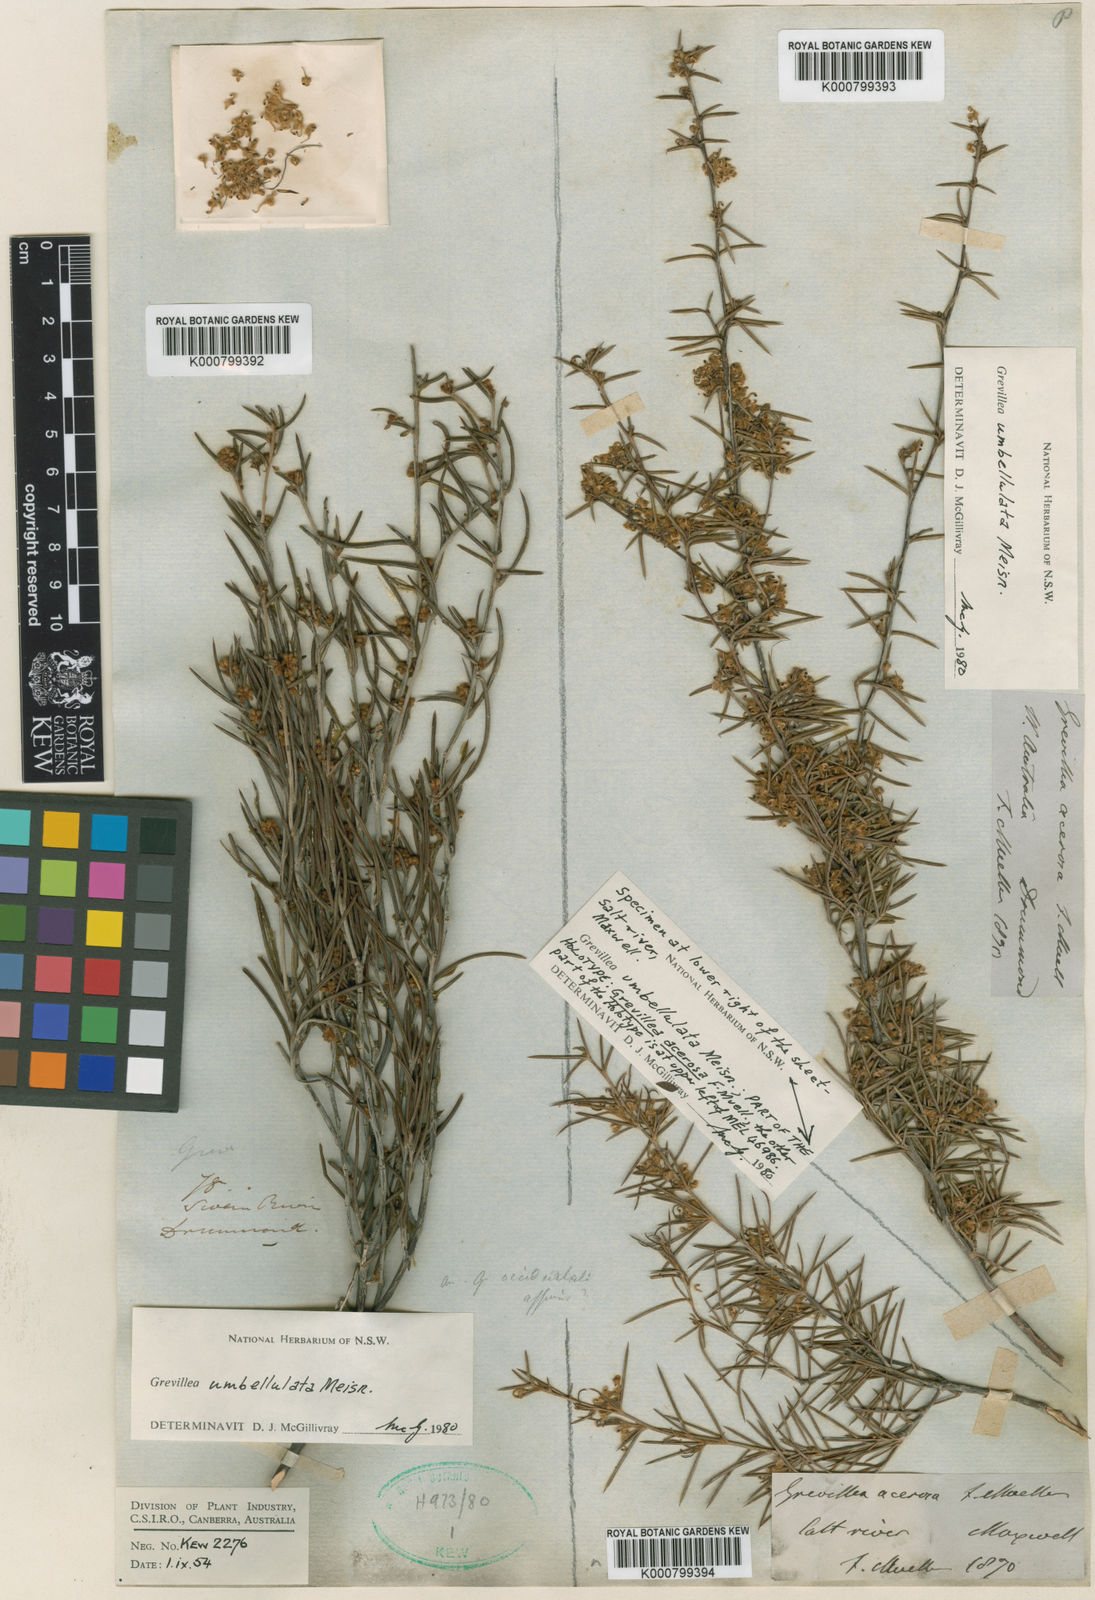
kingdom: Plantae
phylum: Tracheophyta
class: Magnoliopsida
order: Proteales
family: Proteaceae
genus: Grevillea
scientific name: Grevillea umbellulata
